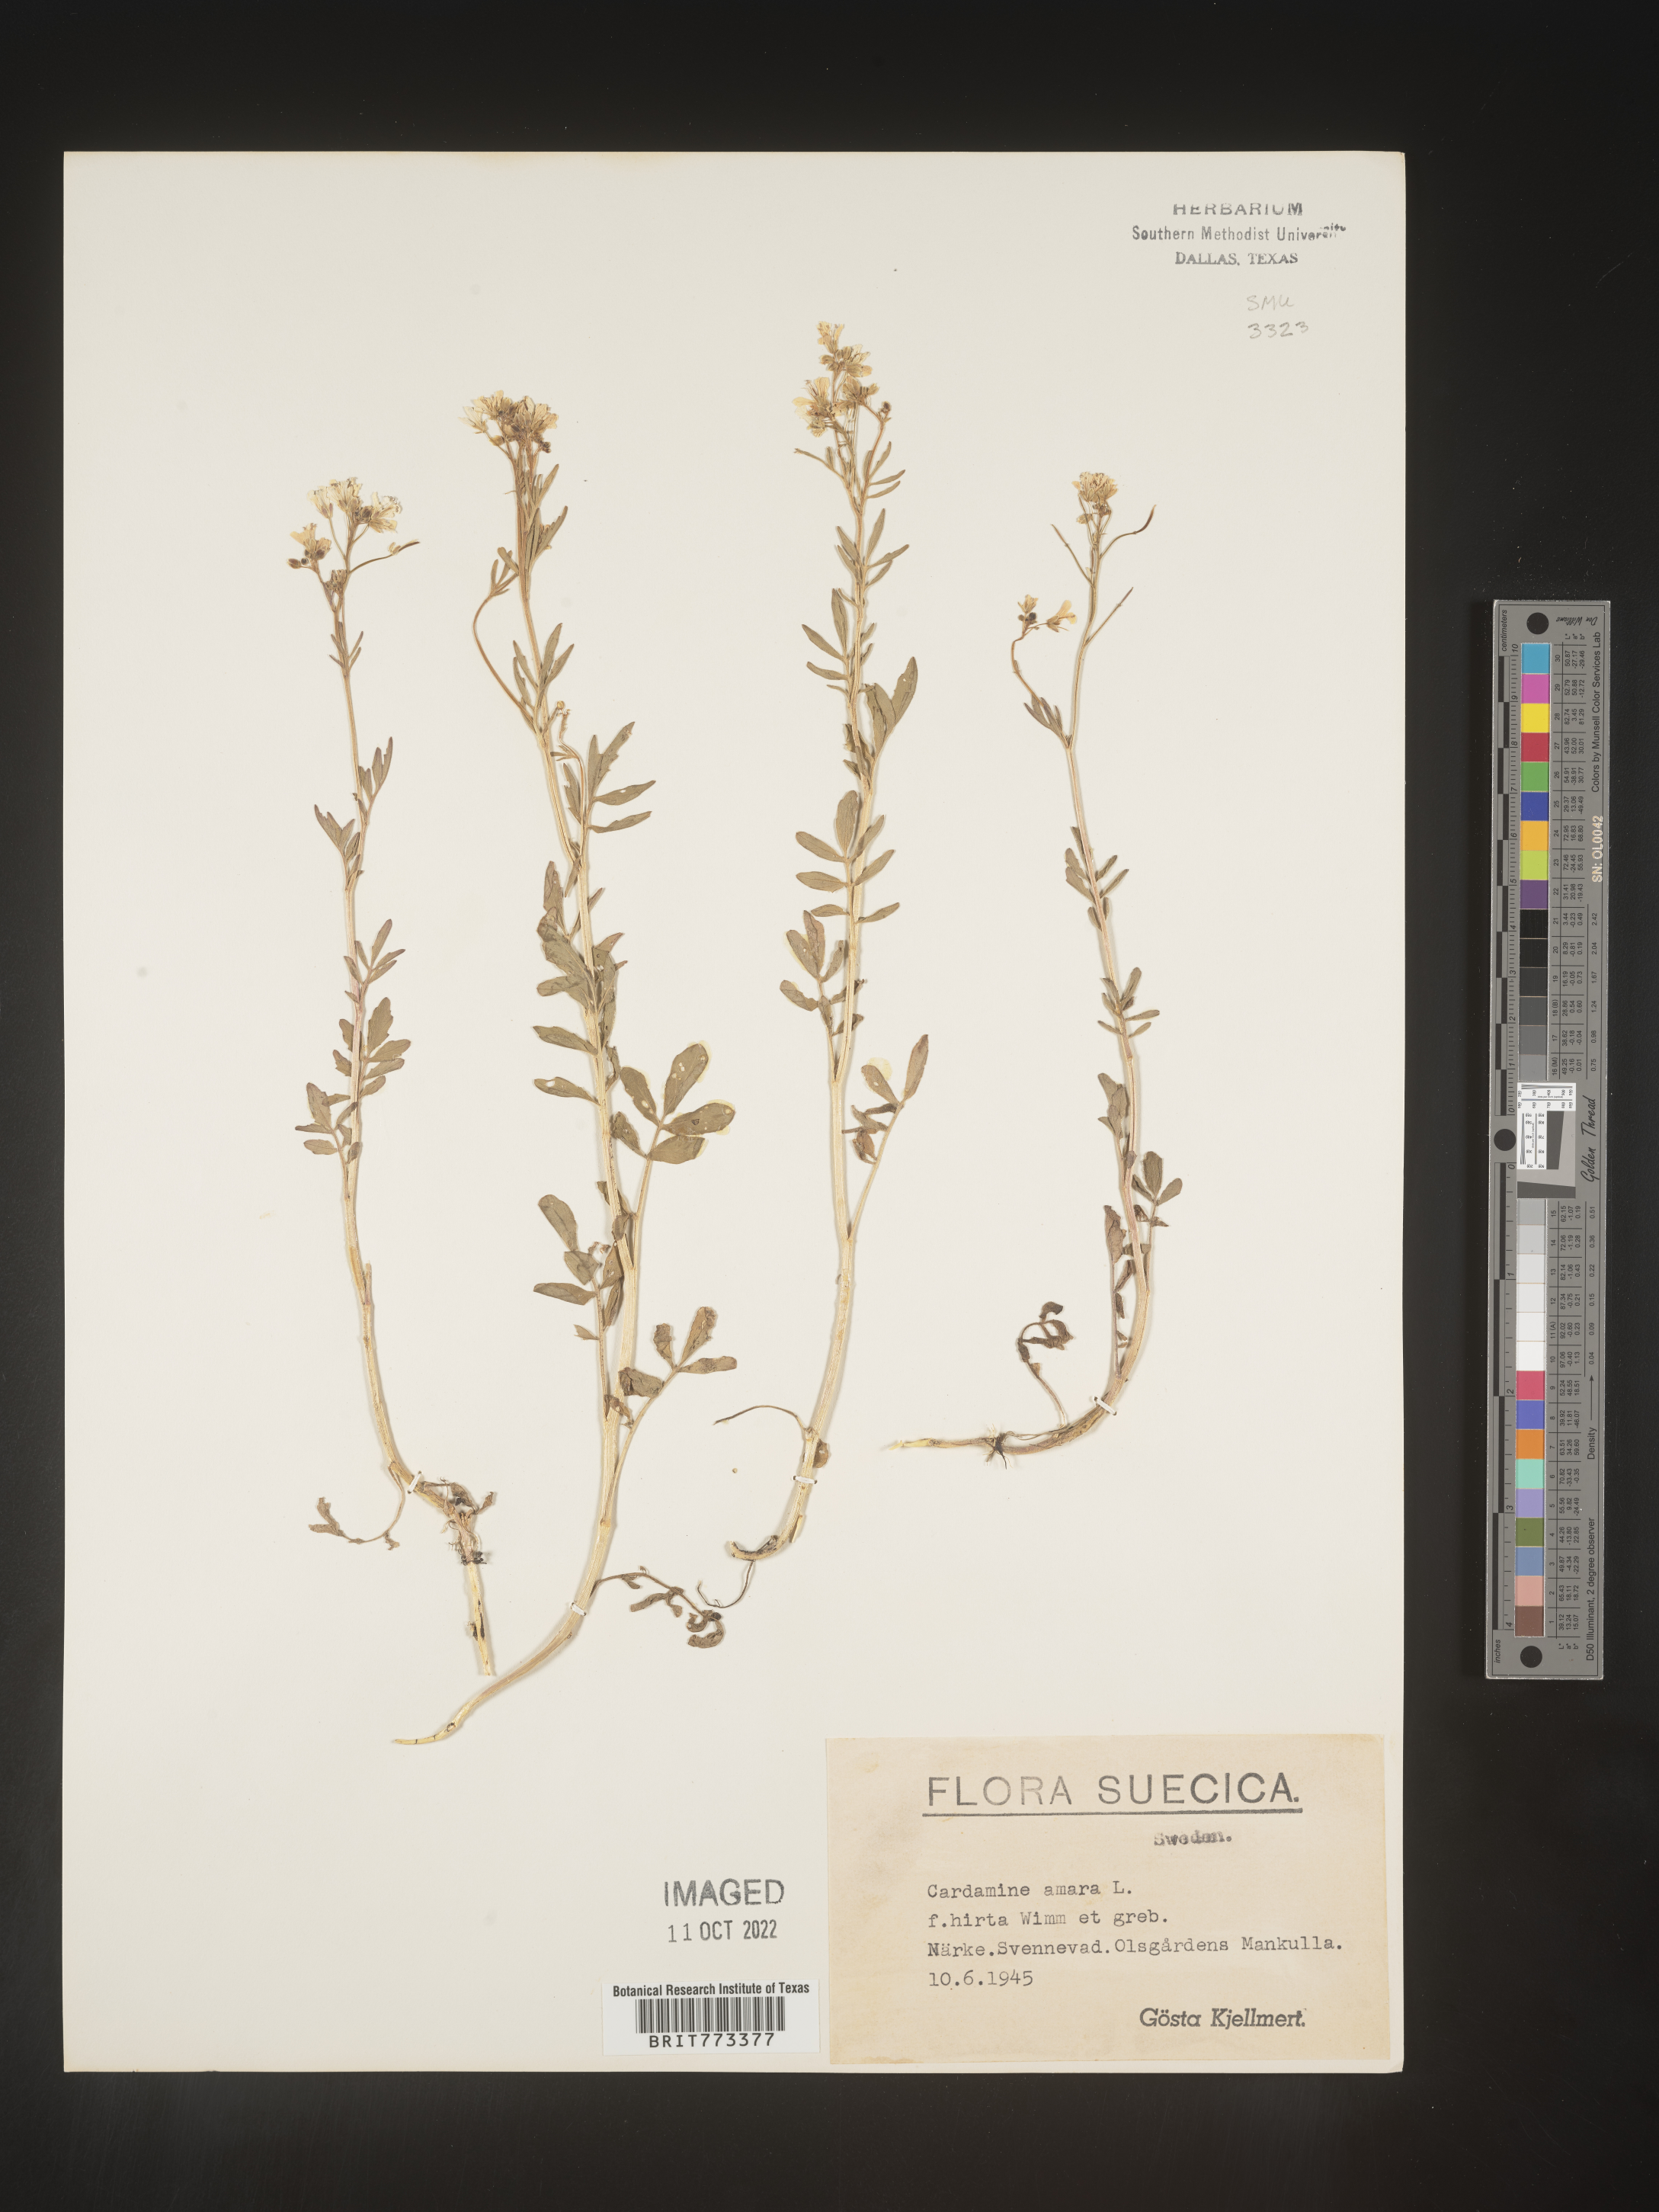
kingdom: Plantae
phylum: Tracheophyta
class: Magnoliopsida
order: Brassicales
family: Brassicaceae
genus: Cardamine
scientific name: Cardamine
